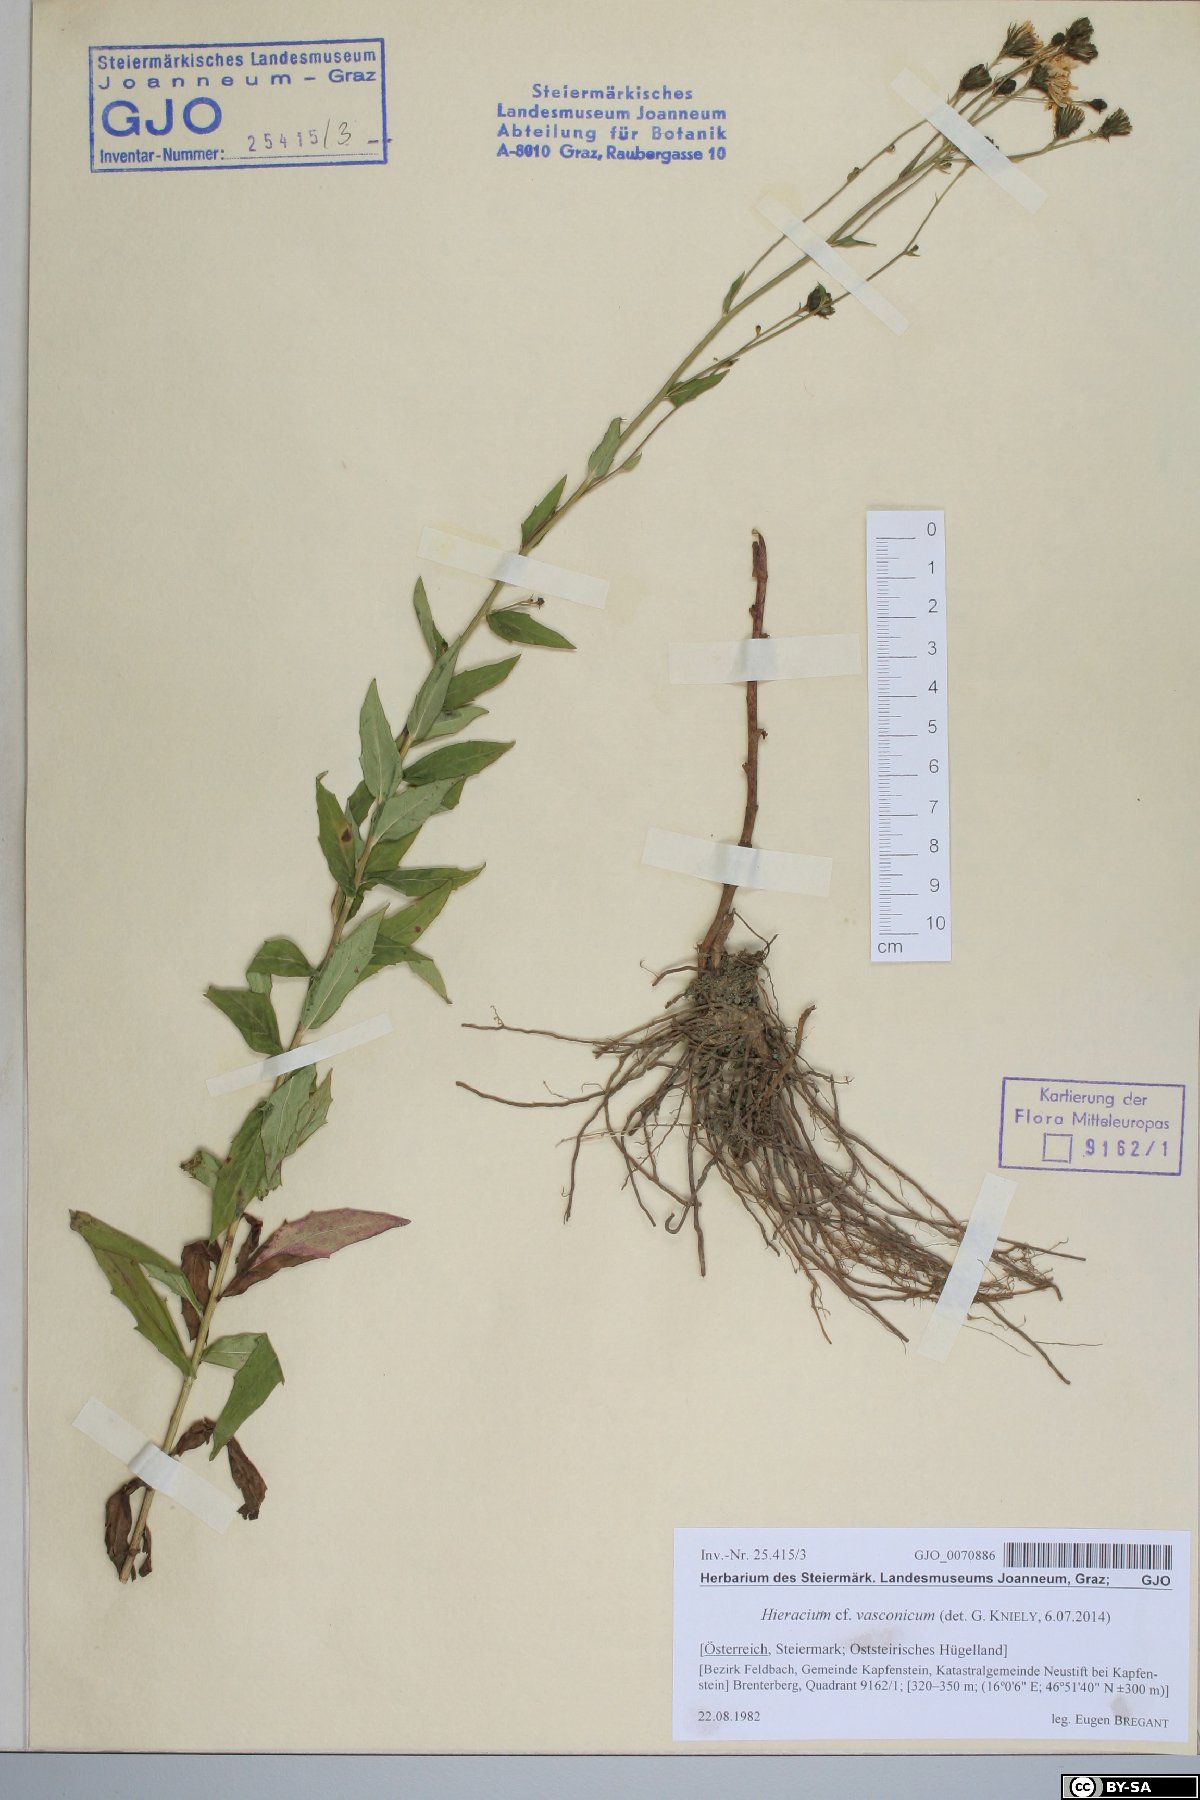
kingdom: Plantae
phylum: Tracheophyta
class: Magnoliopsida
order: Asterales
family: Asteraceae
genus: Hieracium
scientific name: Hieracium vasconicum
